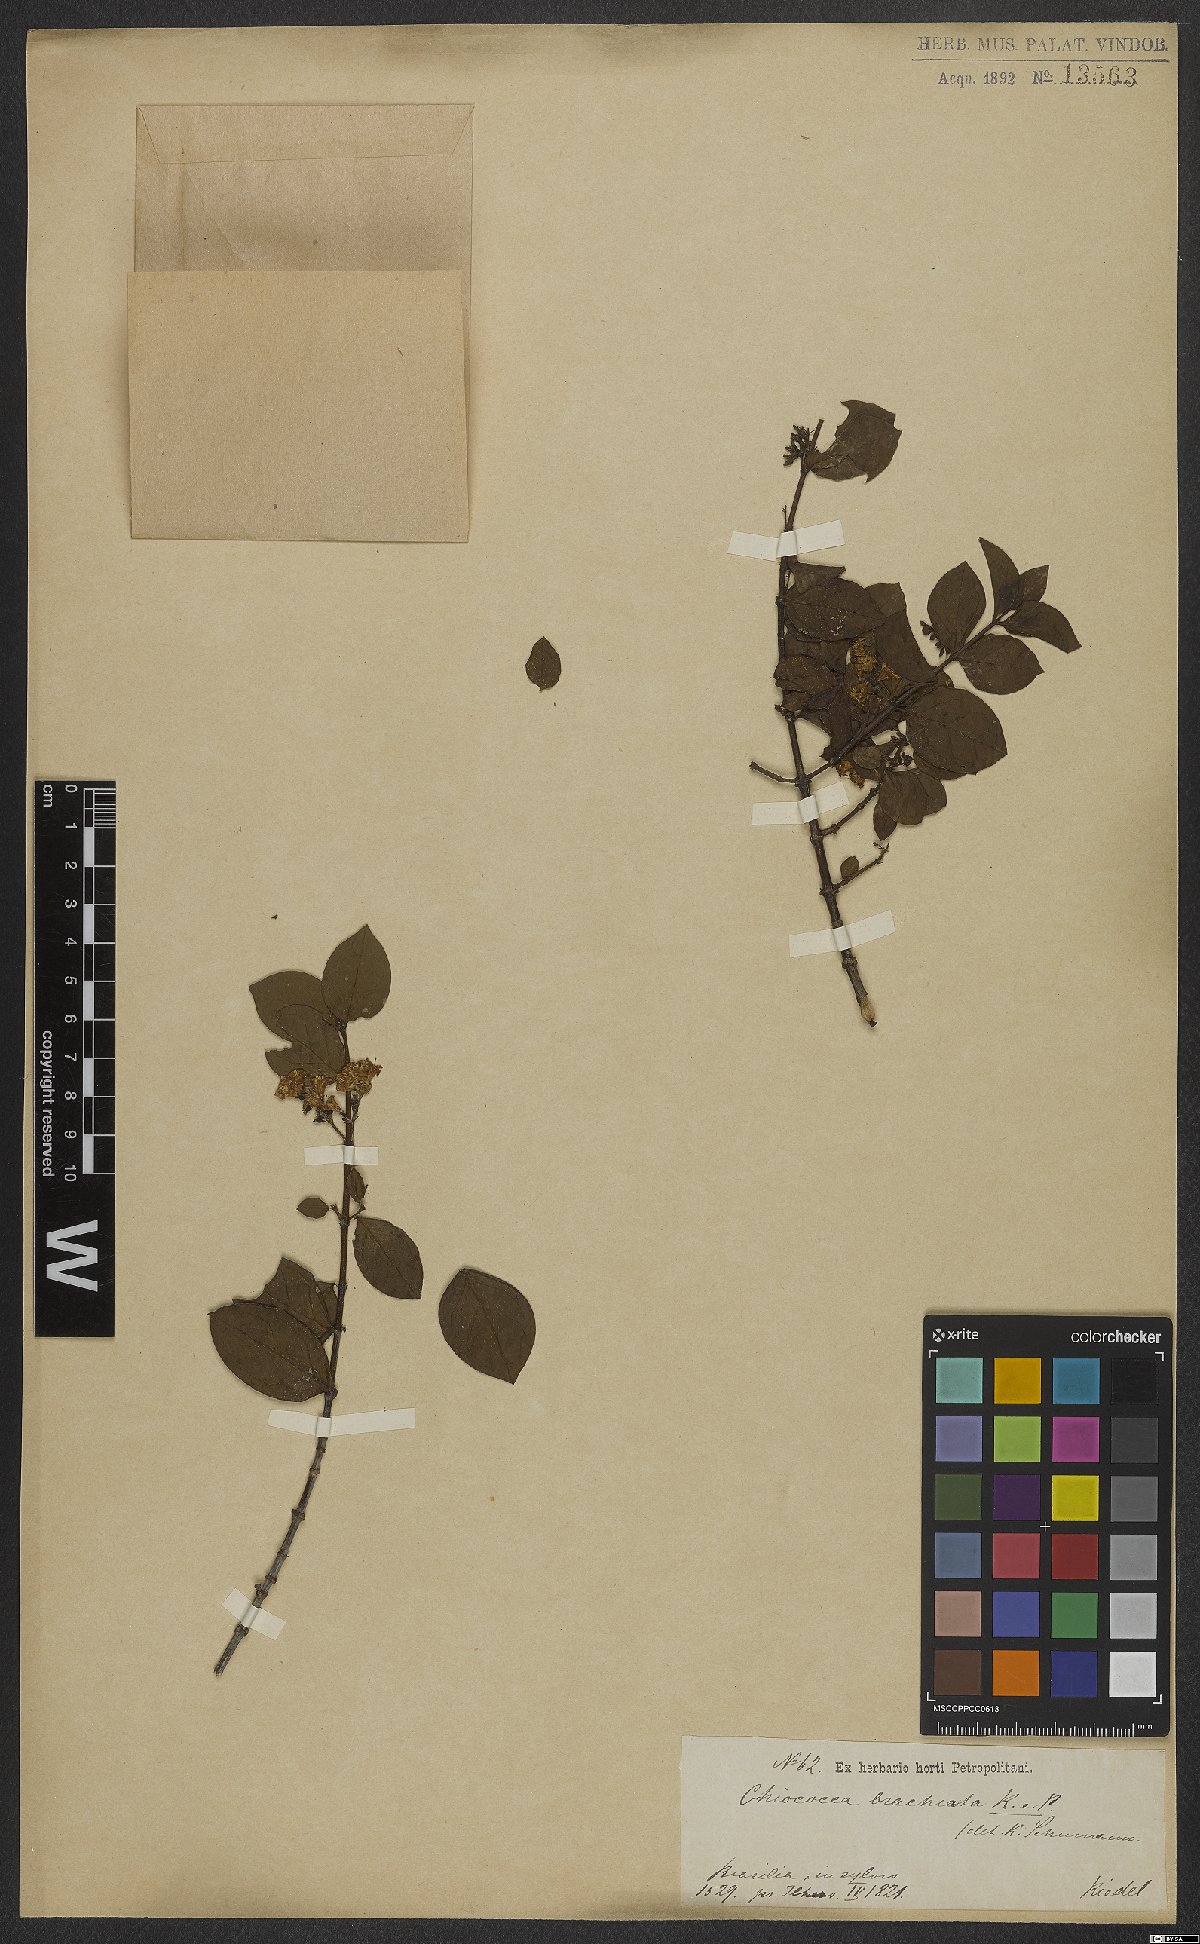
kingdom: Plantae
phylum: Tracheophyta
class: Magnoliopsida
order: Gentianales
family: Rubiaceae
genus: Chiococca
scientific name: Chiococca alba
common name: Snowberry
